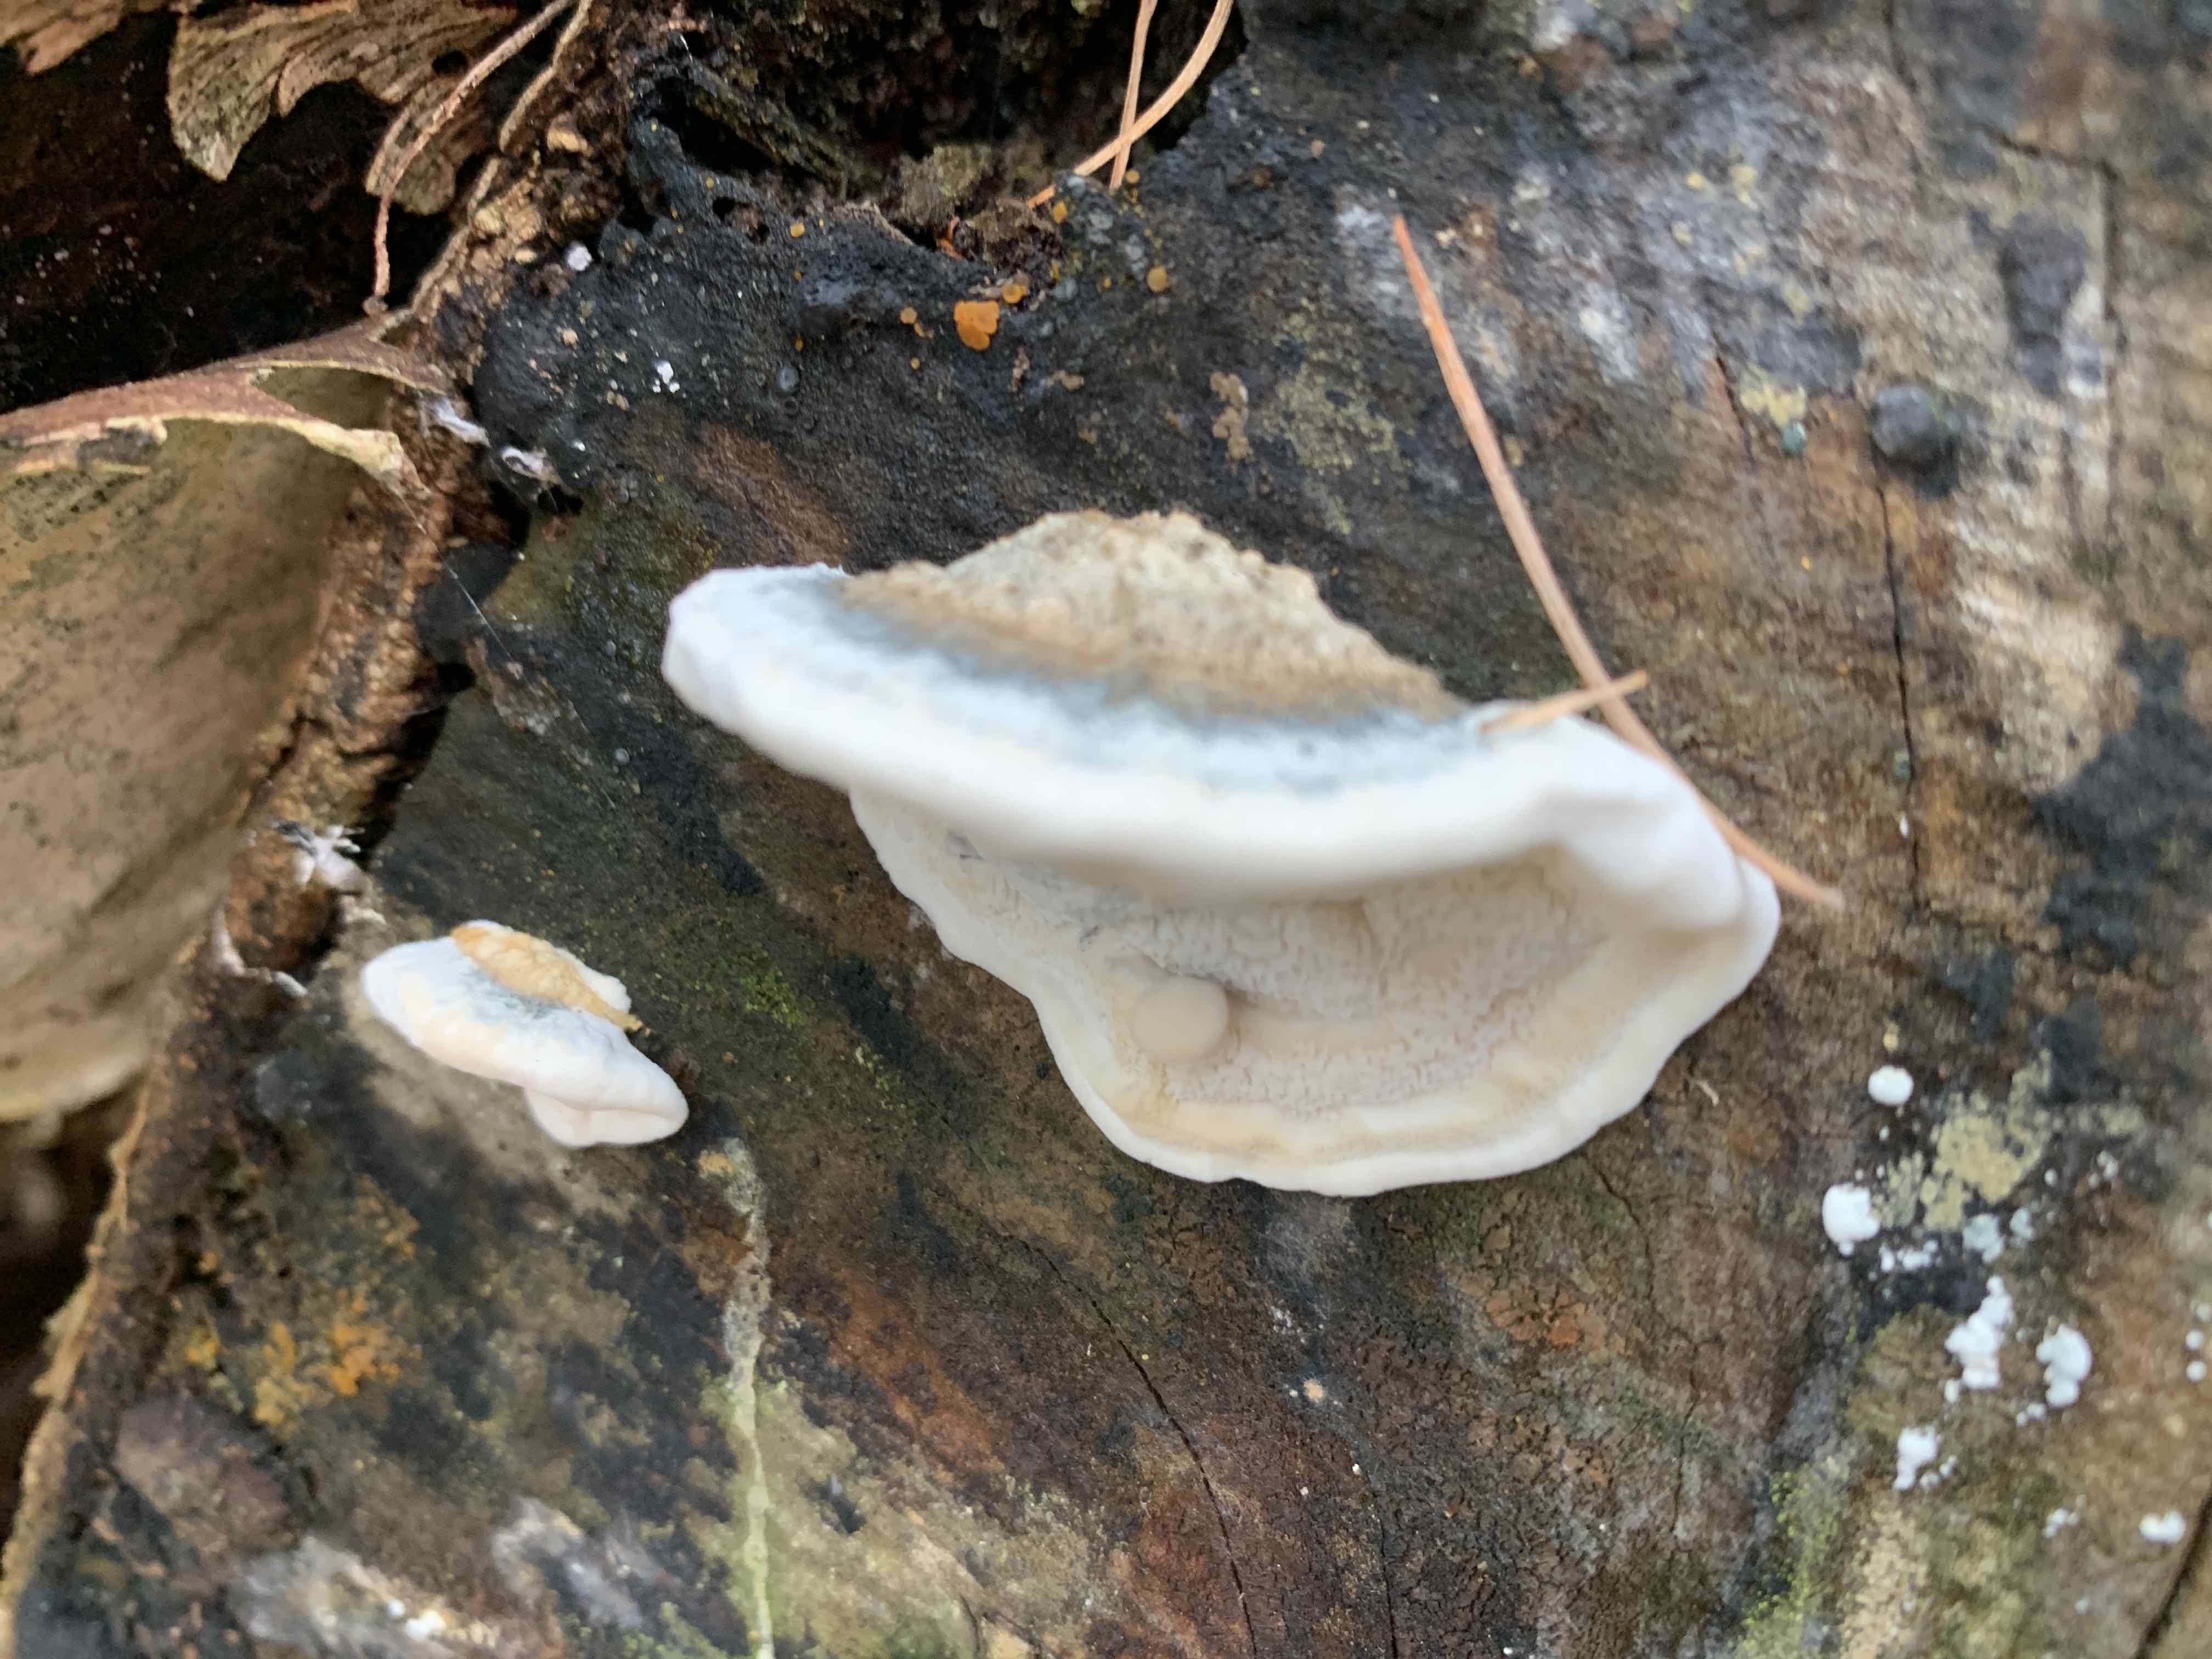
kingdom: Fungi
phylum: Basidiomycota
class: Agaricomycetes
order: Polyporales
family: Polyporaceae
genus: Cyanosporus
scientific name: Cyanosporus alni
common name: blegblå kødporesvamp
